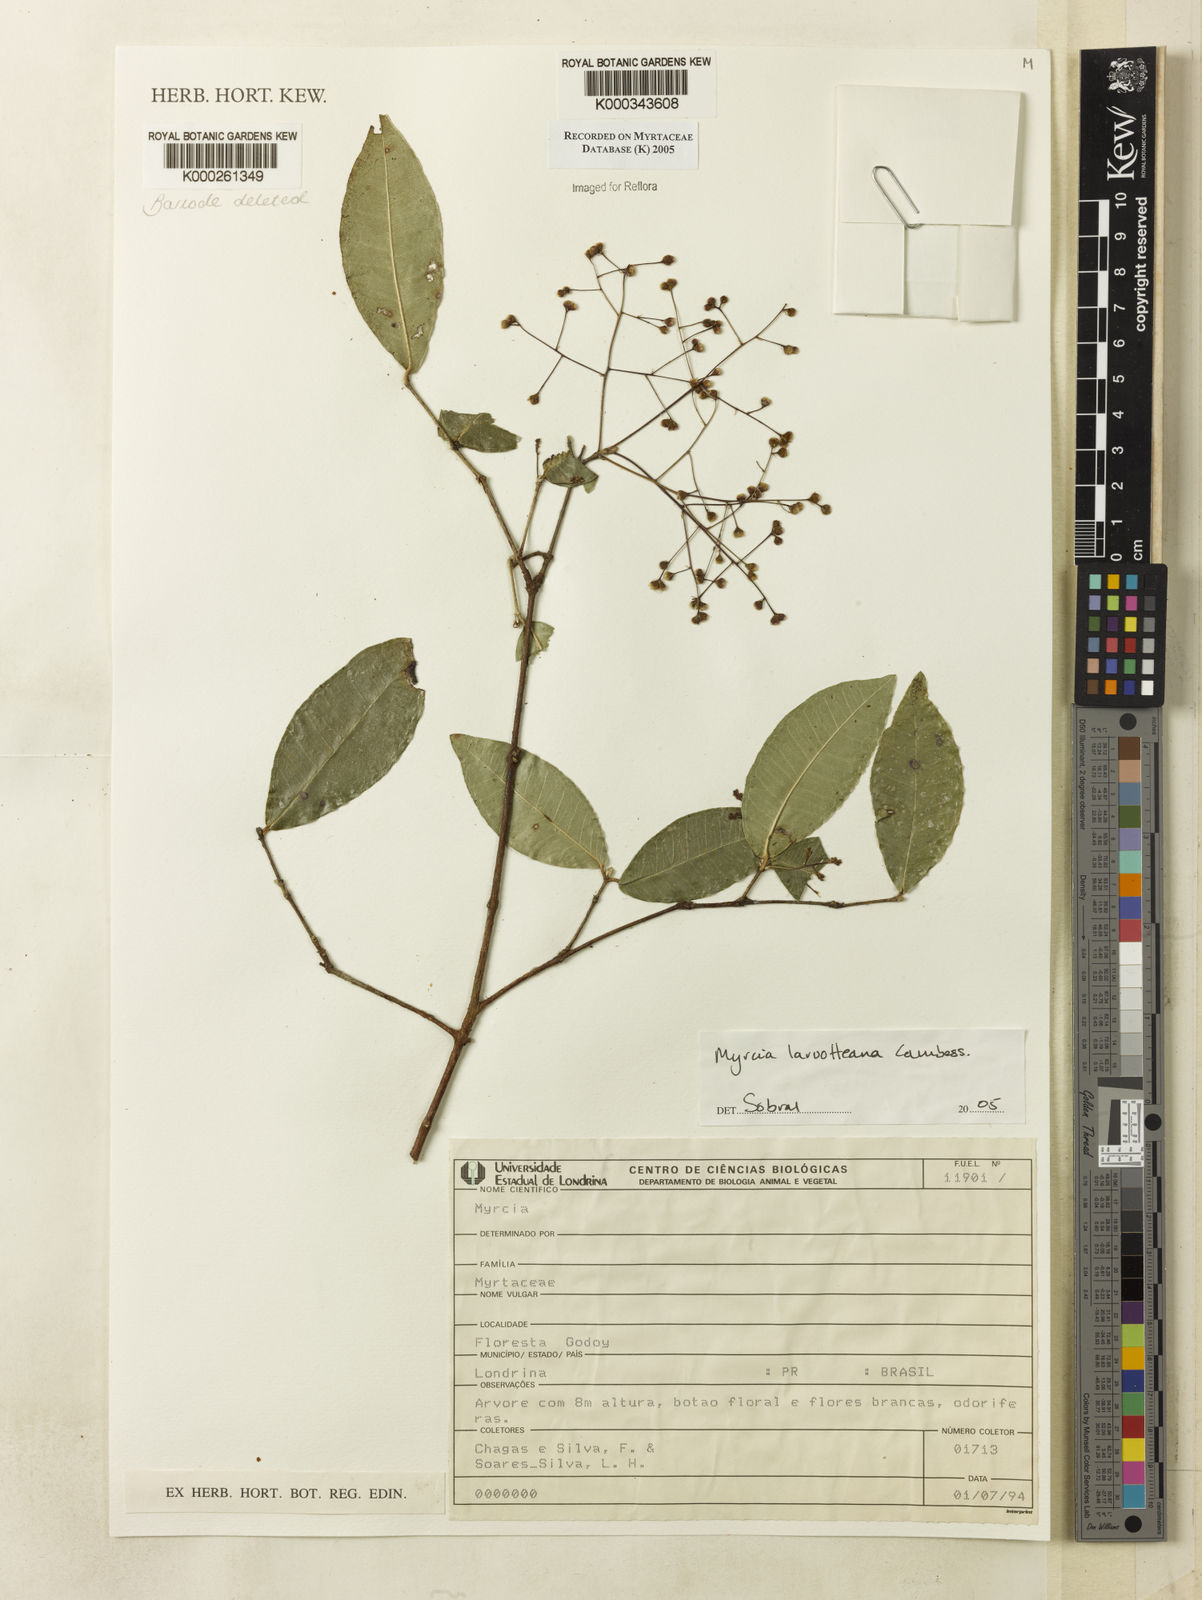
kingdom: Plantae
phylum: Tracheophyta
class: Magnoliopsida
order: Myrtales
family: Myrtaceae
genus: Myrcia
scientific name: Myrcia laruotteana
